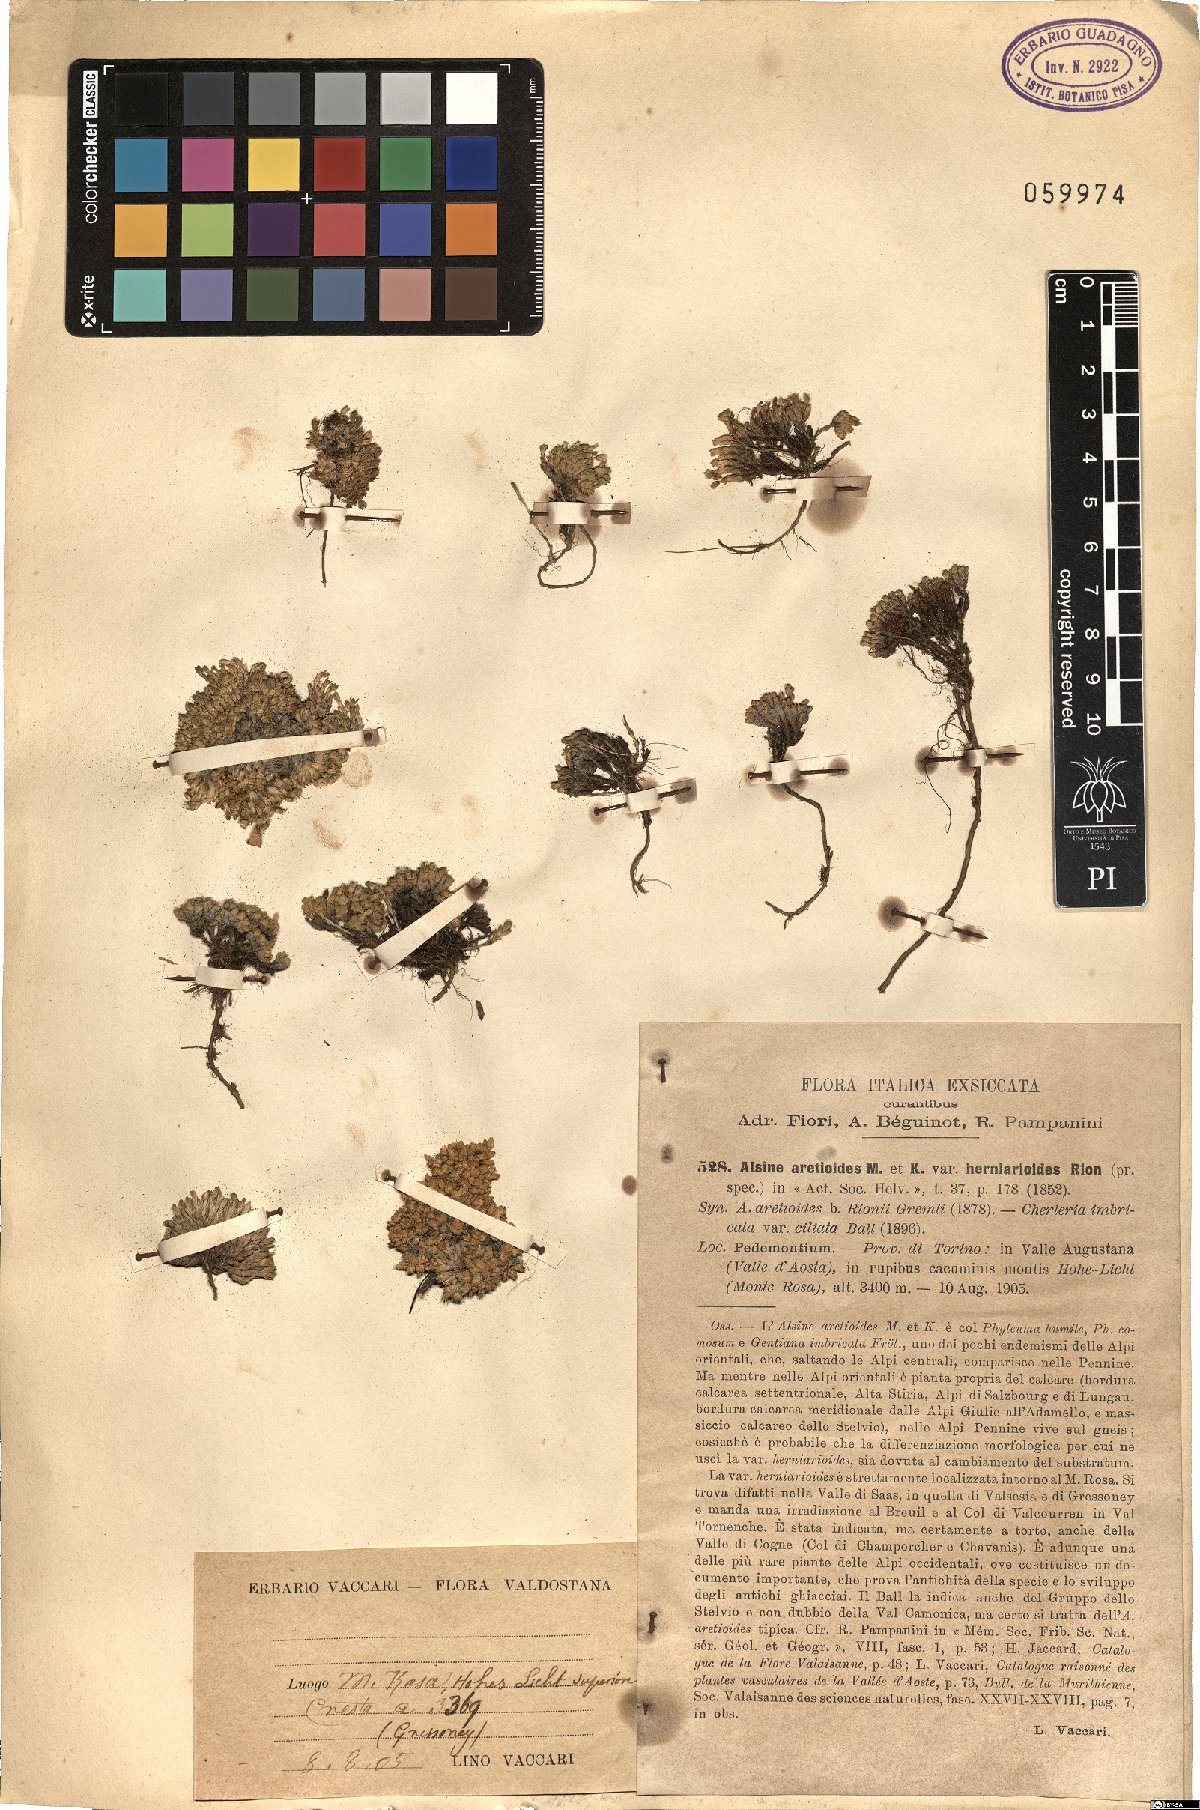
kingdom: Plantae
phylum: Tracheophyta
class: Magnoliopsida
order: Caryophyllales
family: Caryophyllaceae
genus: Facchinia
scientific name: Facchinia herniarioides
